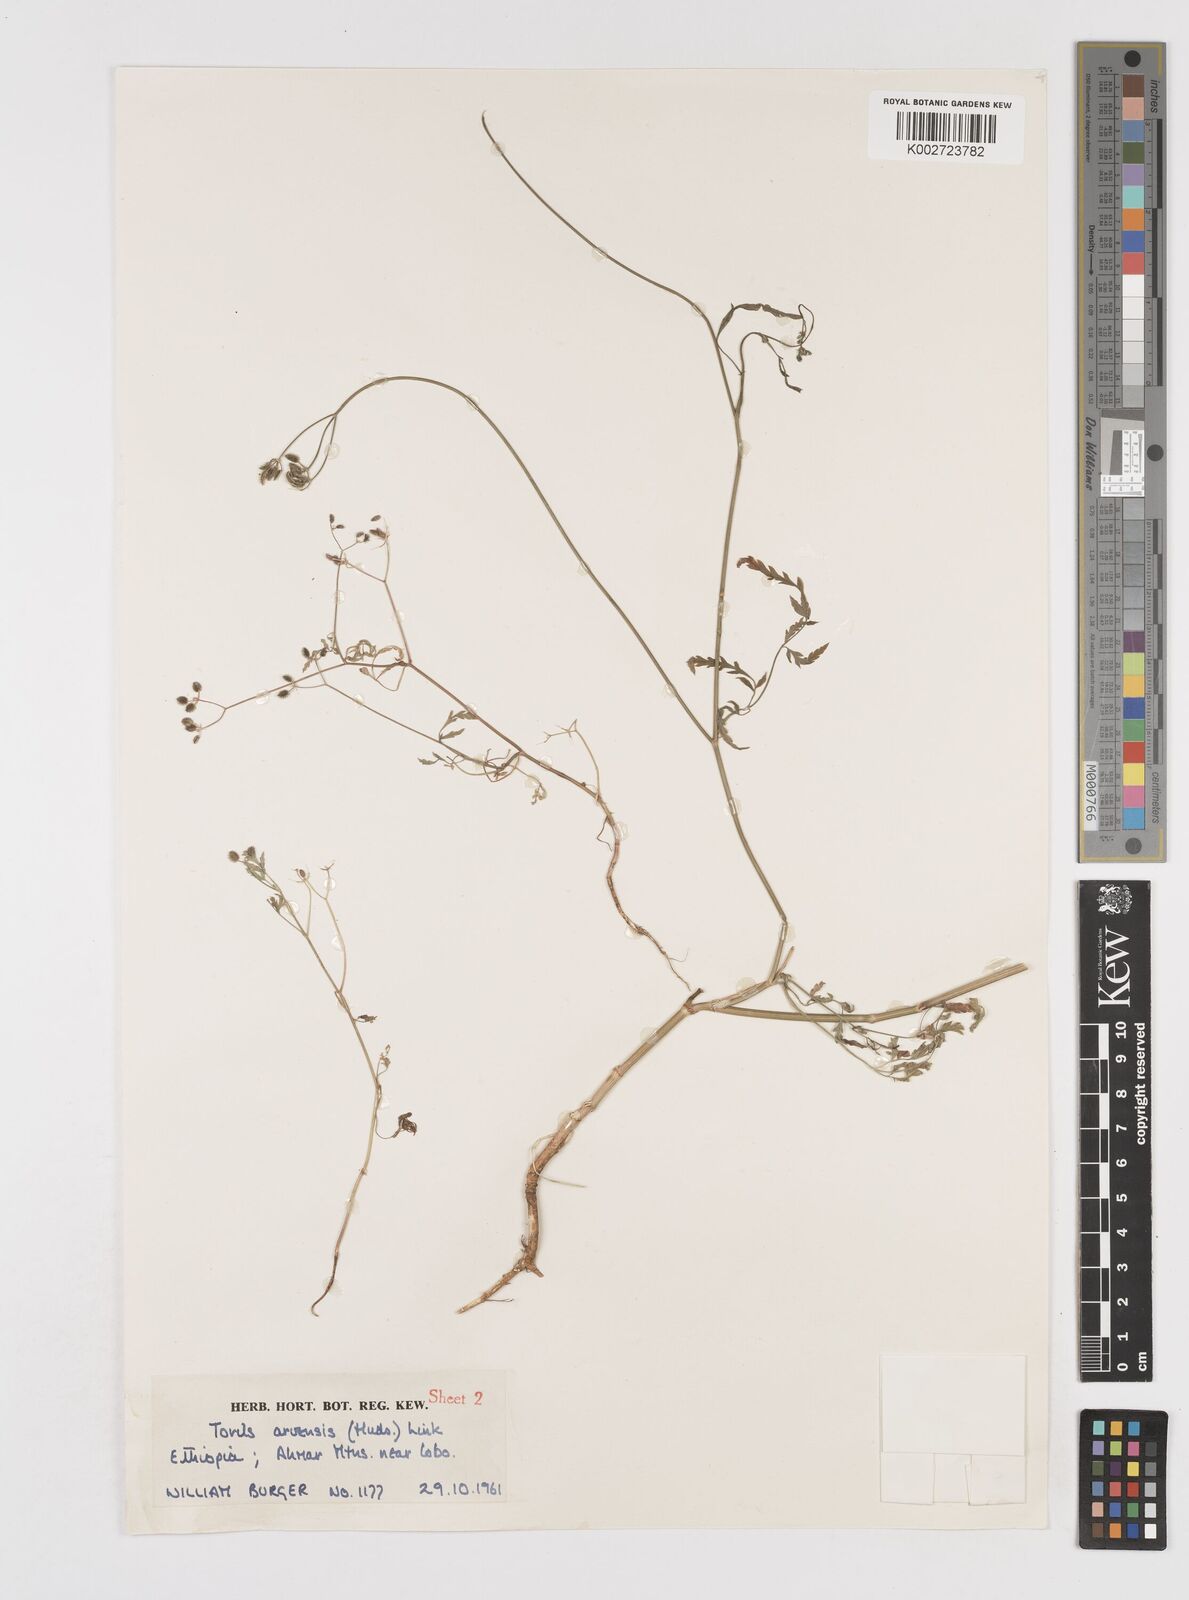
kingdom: Plantae
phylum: Tracheophyta
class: Magnoliopsida
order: Apiales
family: Apiaceae
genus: Torilis
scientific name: Torilis arvensis
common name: Spreading hedge-parsley
